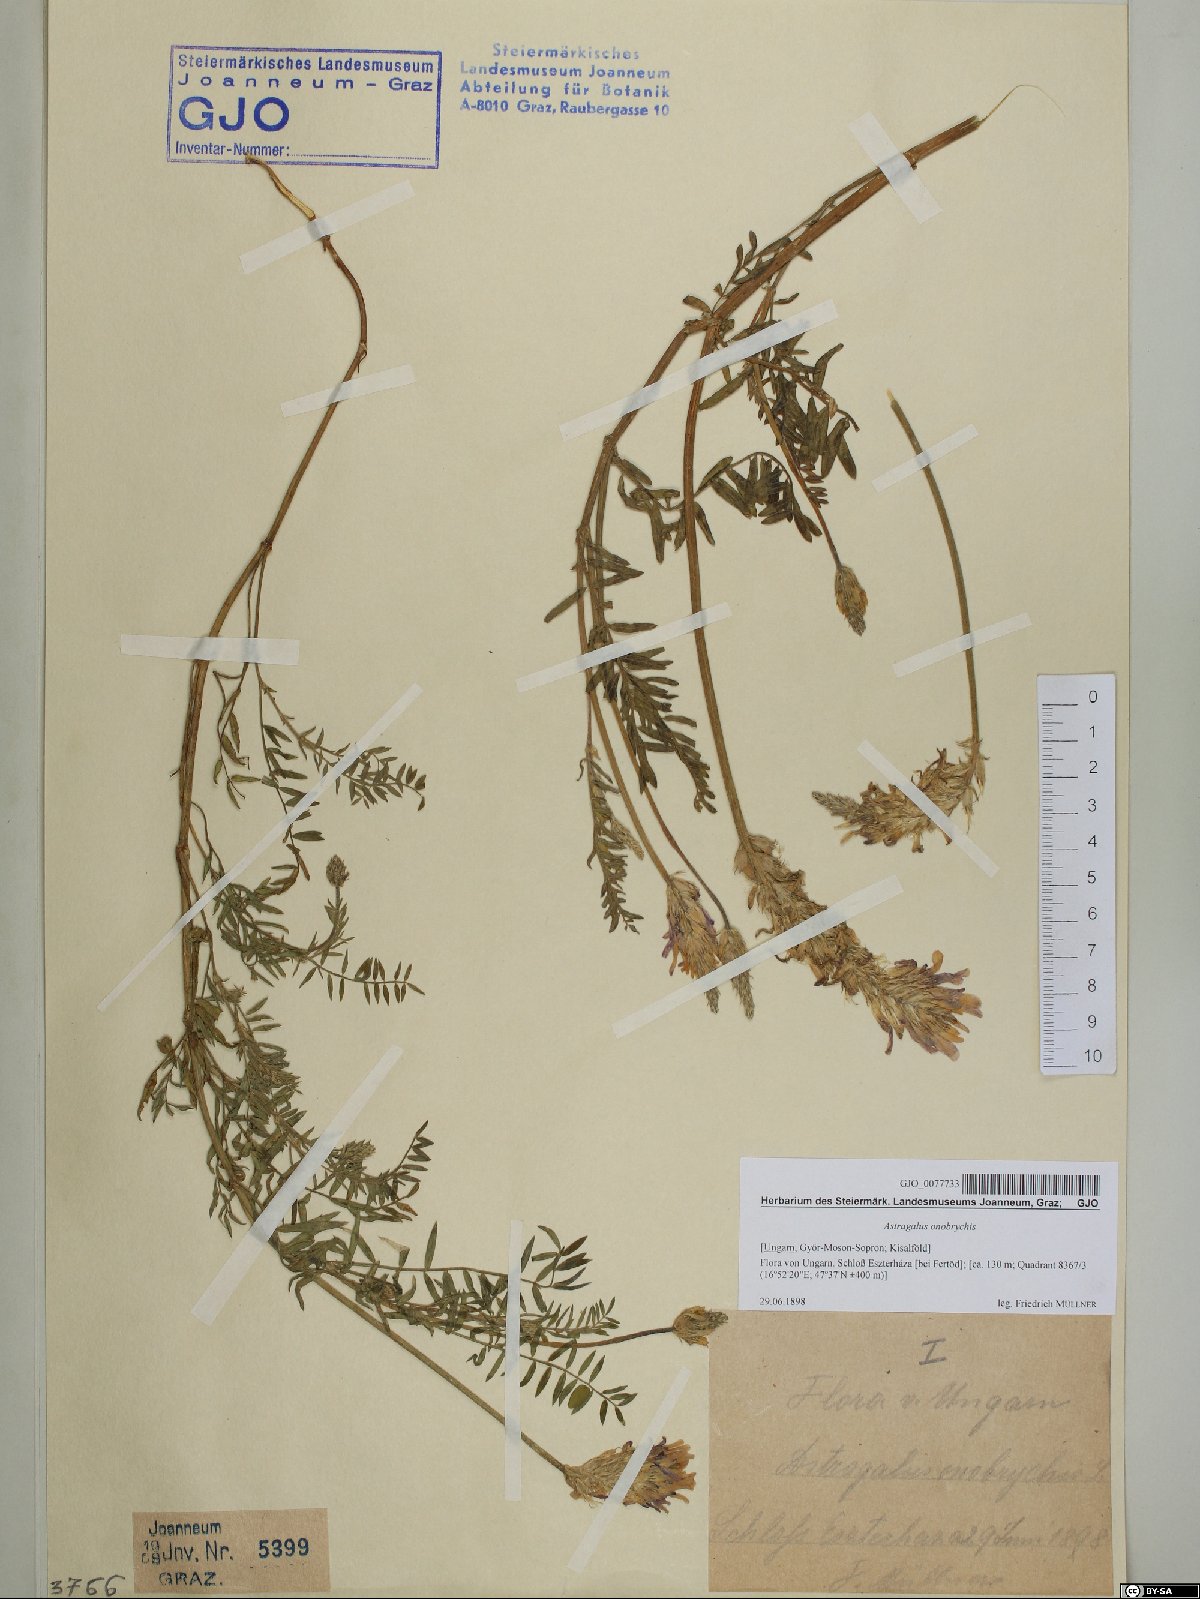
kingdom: Plantae
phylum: Tracheophyta
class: Magnoliopsida
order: Fabales
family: Fabaceae
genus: Astragalus
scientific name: Astragalus onobrychis
